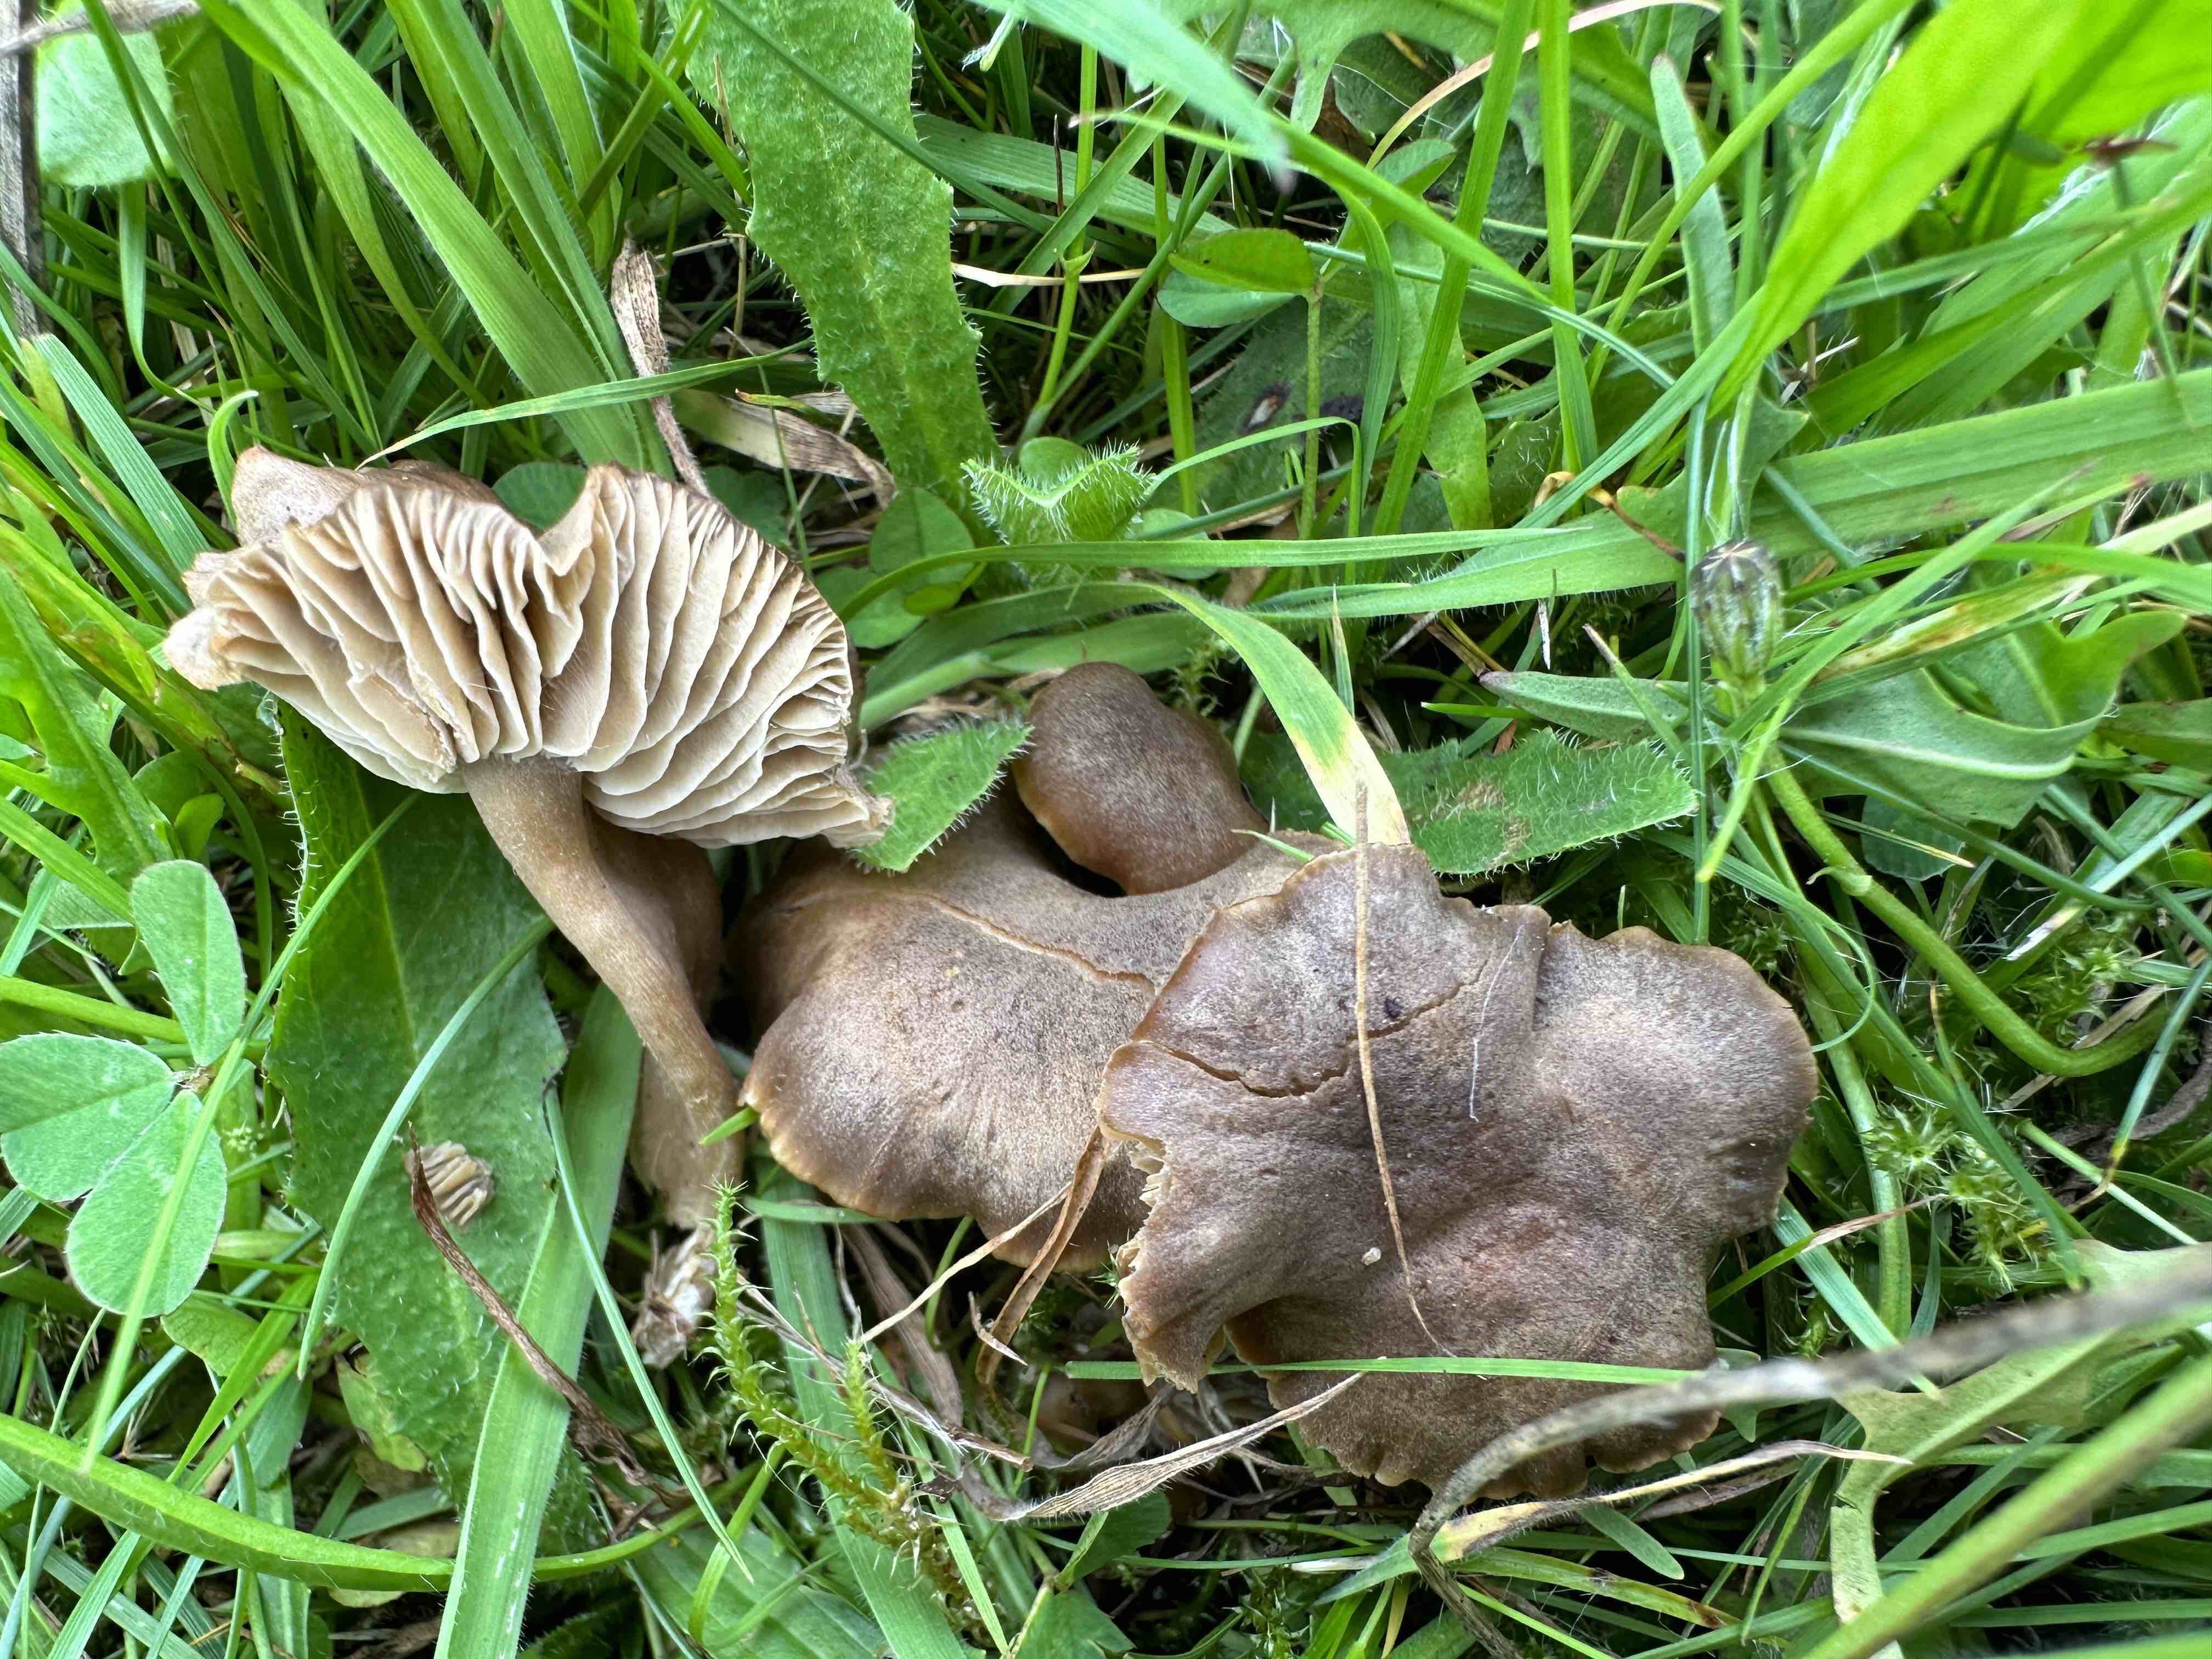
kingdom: Fungi
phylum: Basidiomycota
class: Agaricomycetes
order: Agaricales
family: Clavariaceae
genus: Camarophyllopsis
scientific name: Camarophyllopsis schulzeri
